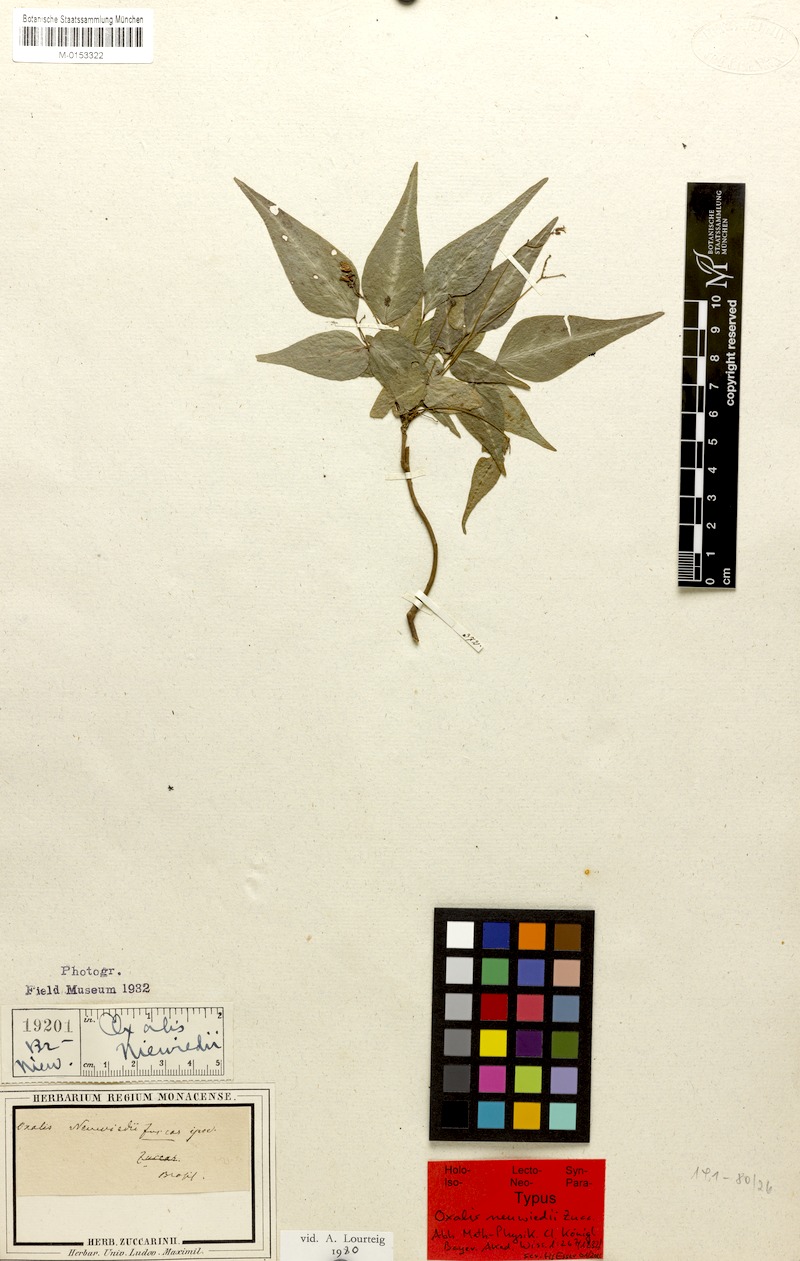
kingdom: Plantae
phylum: Tracheophyta
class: Magnoliopsida
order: Oxalidales
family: Oxalidaceae
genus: Oxalis
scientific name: Oxalis neuwiedii
